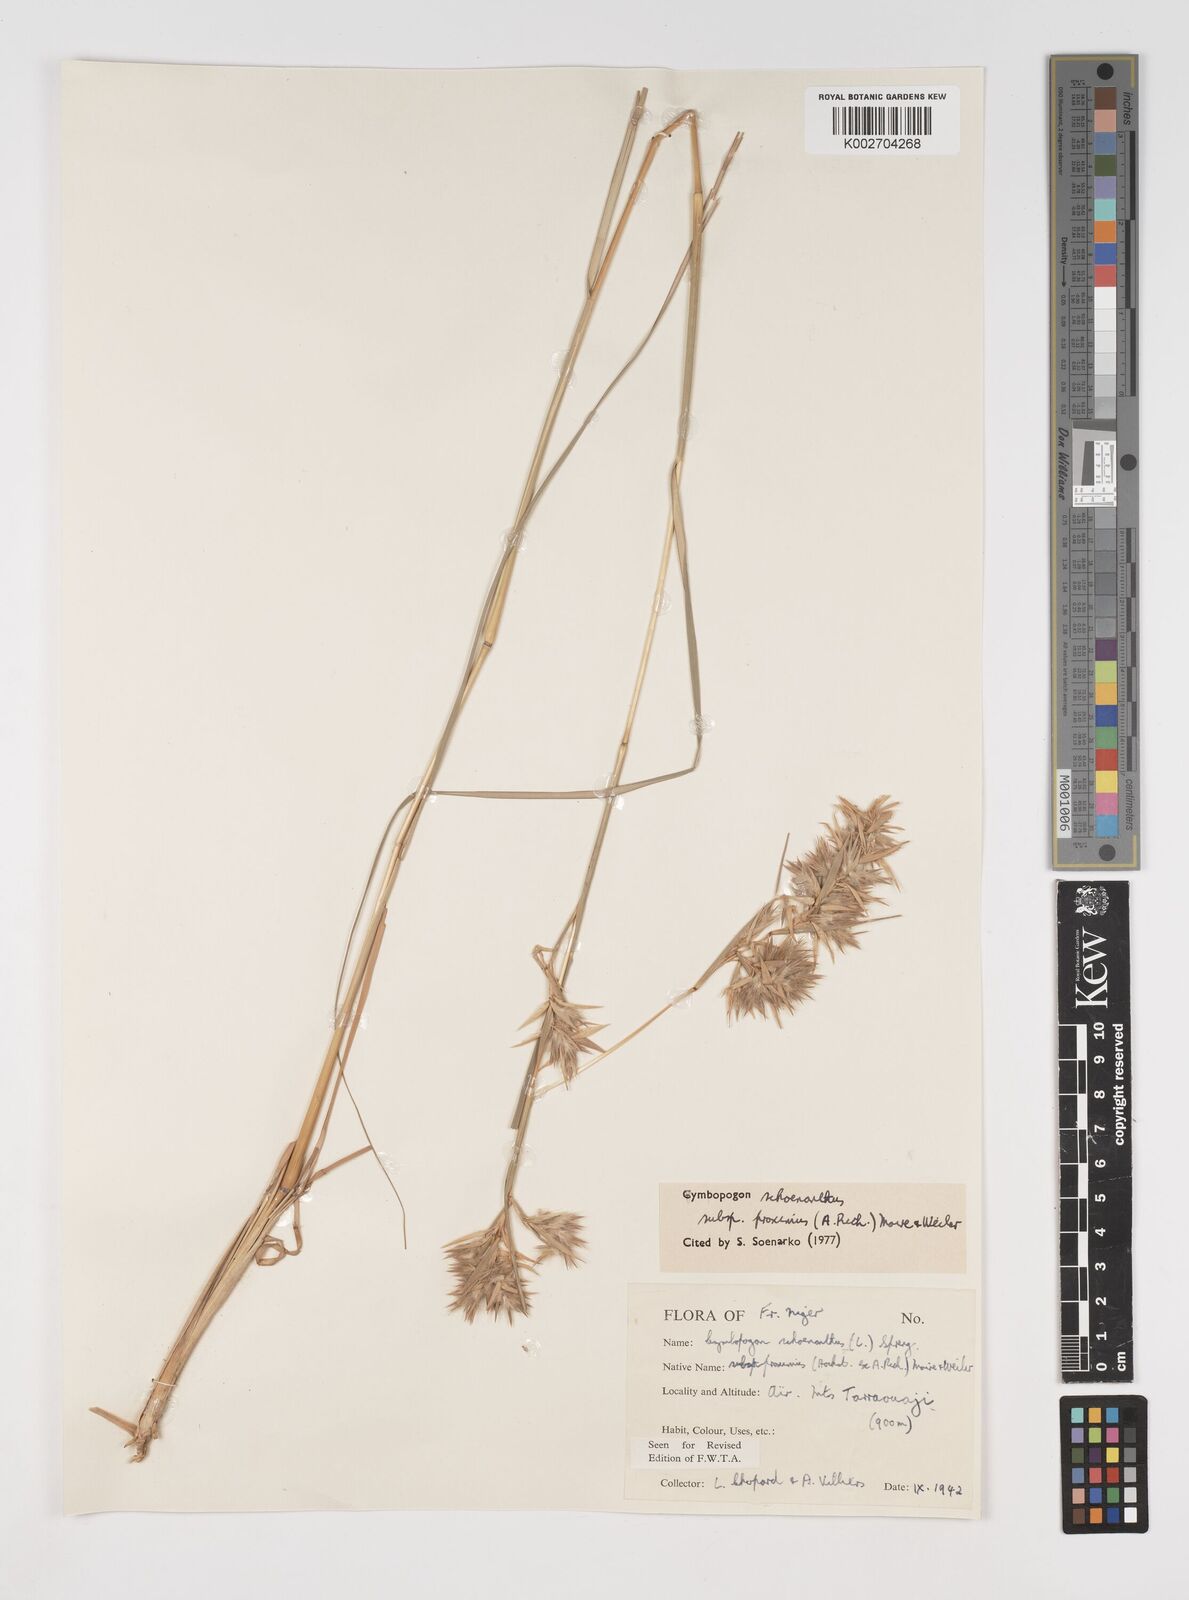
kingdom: Plantae
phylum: Tracheophyta
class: Liliopsida
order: Poales
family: Poaceae
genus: Cymbopogon
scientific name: Cymbopogon schoenanthus
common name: Geranium grass
